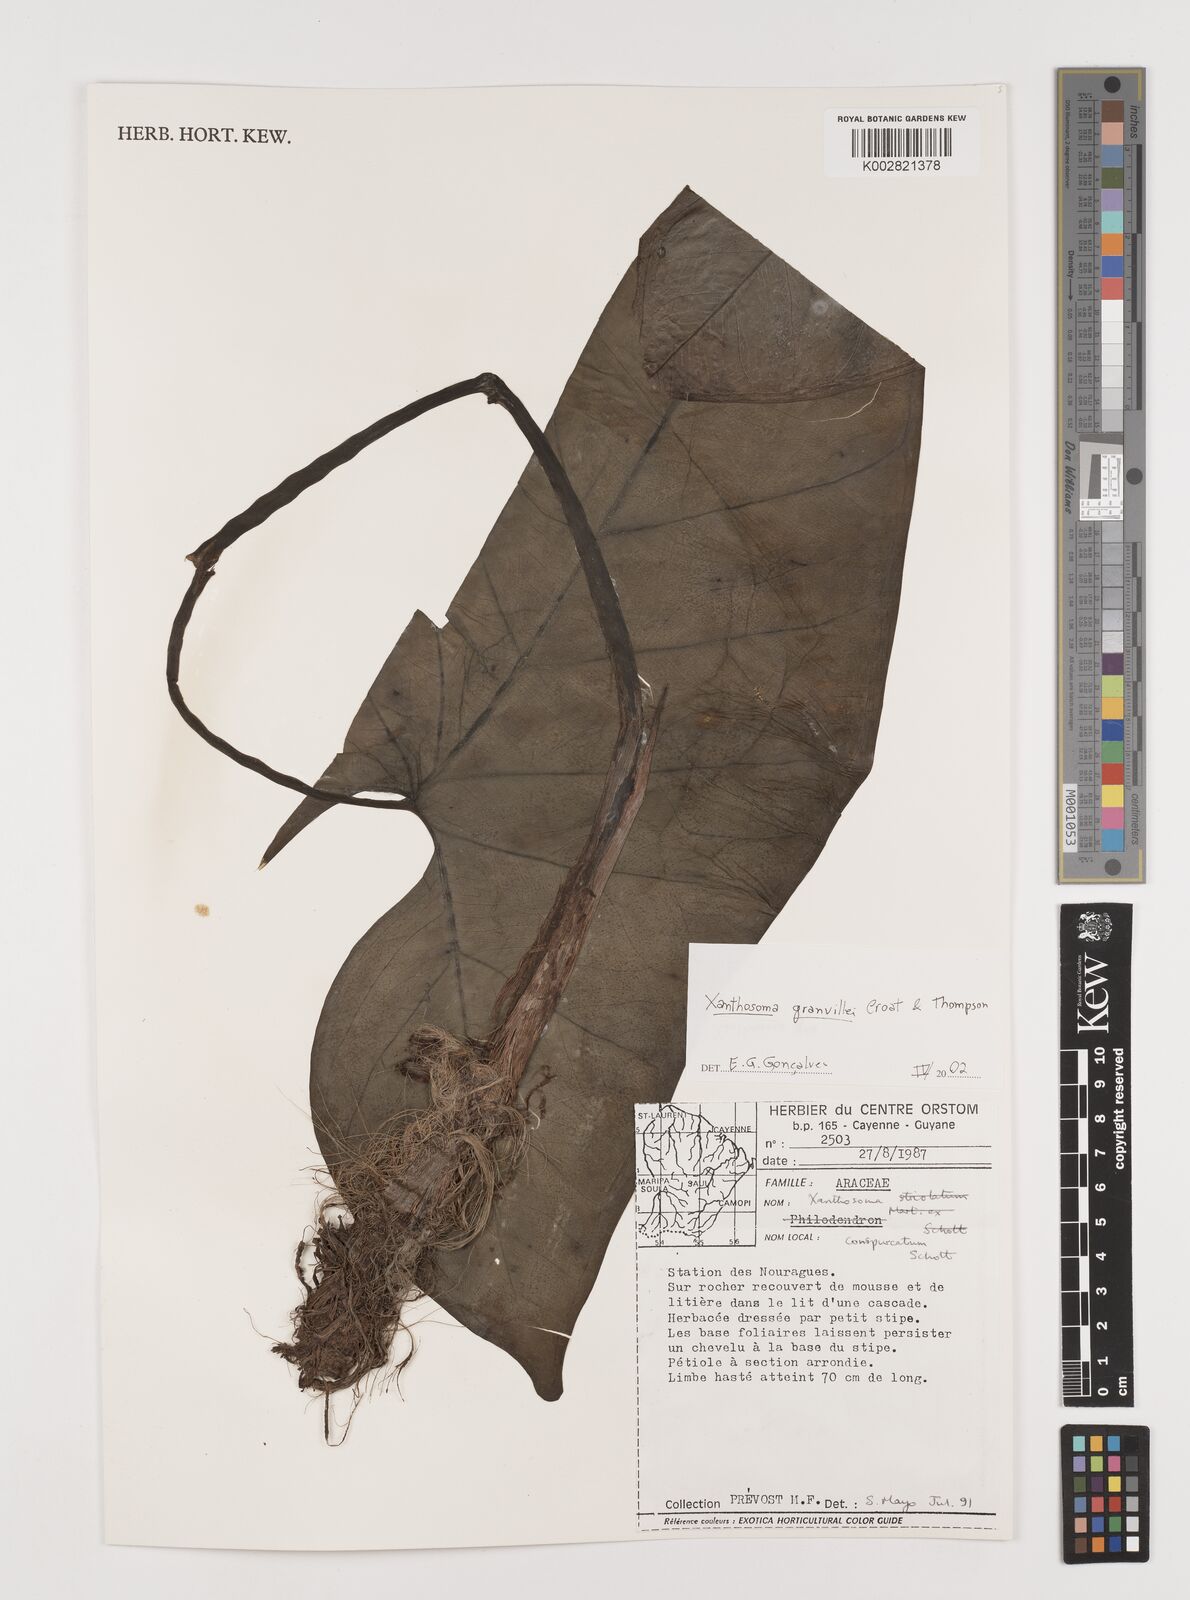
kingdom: Plantae
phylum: Tracheophyta
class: Liliopsida
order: Alismatales
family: Araceae
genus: Xanthosoma
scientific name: Xanthosoma granvillei
